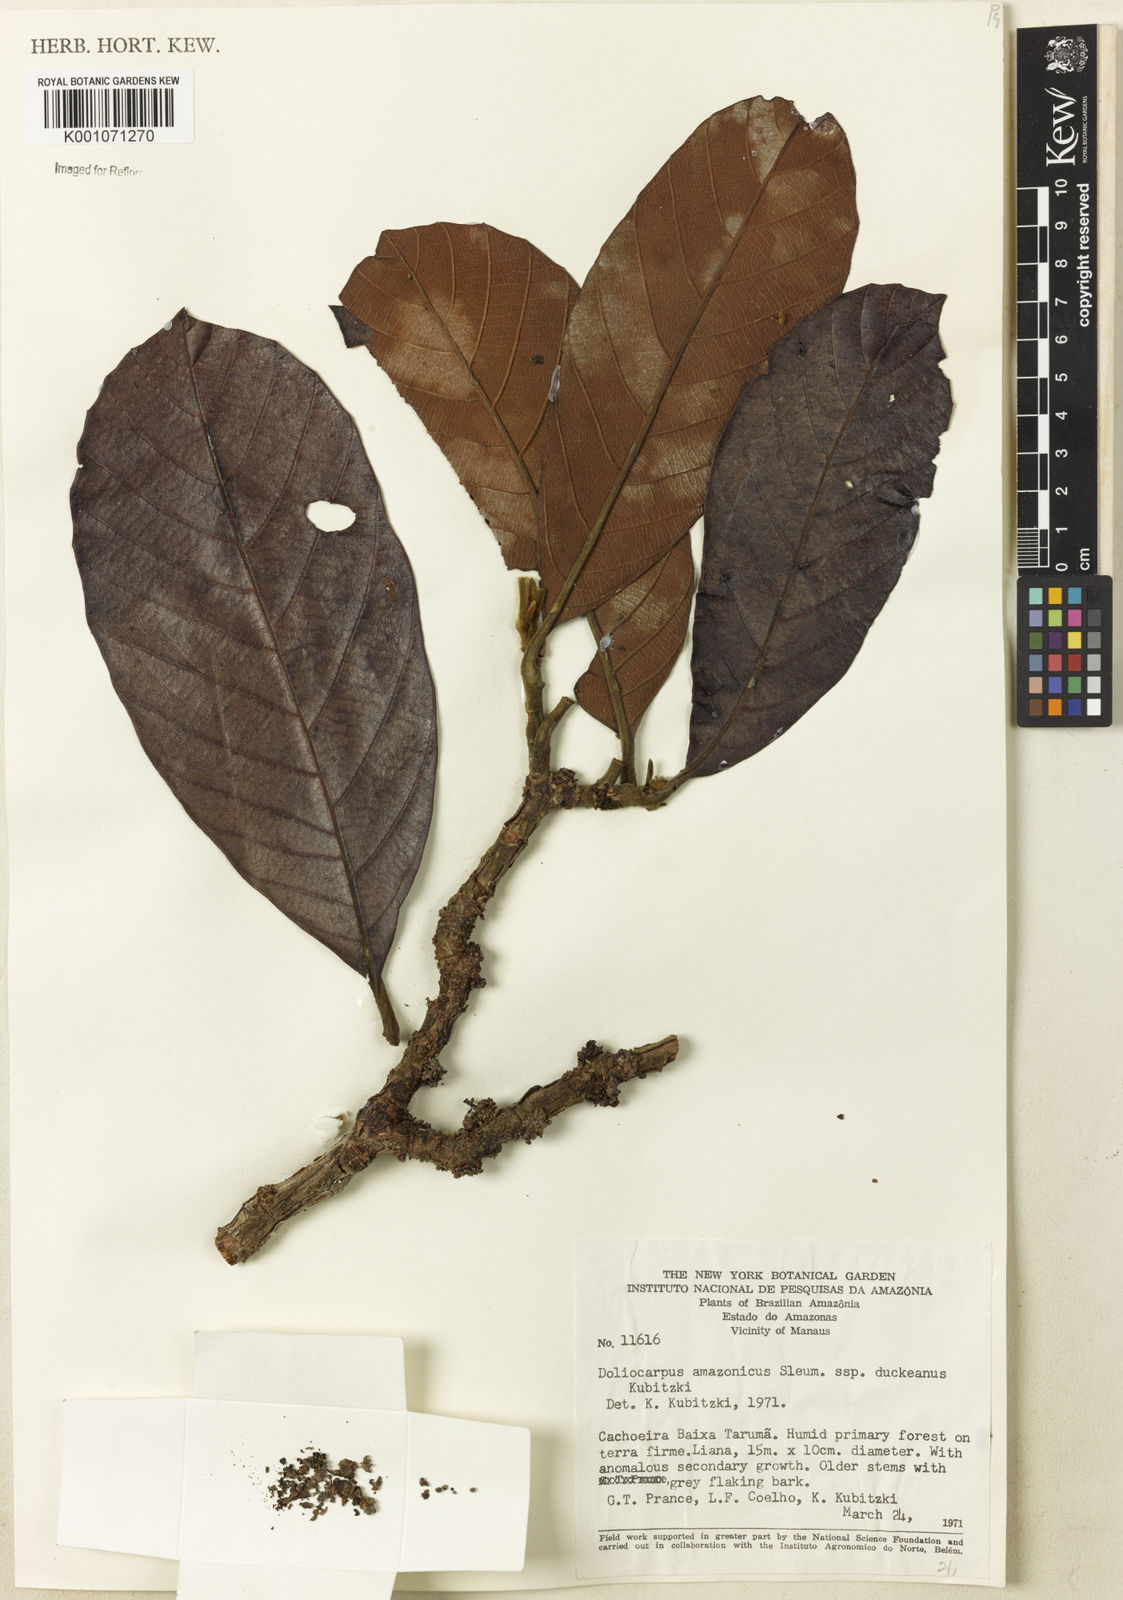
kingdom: Plantae
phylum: Tracheophyta
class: Magnoliopsida
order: Dilleniales
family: Dilleniaceae
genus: Doliocarpus
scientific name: Doliocarpus amazonicus
